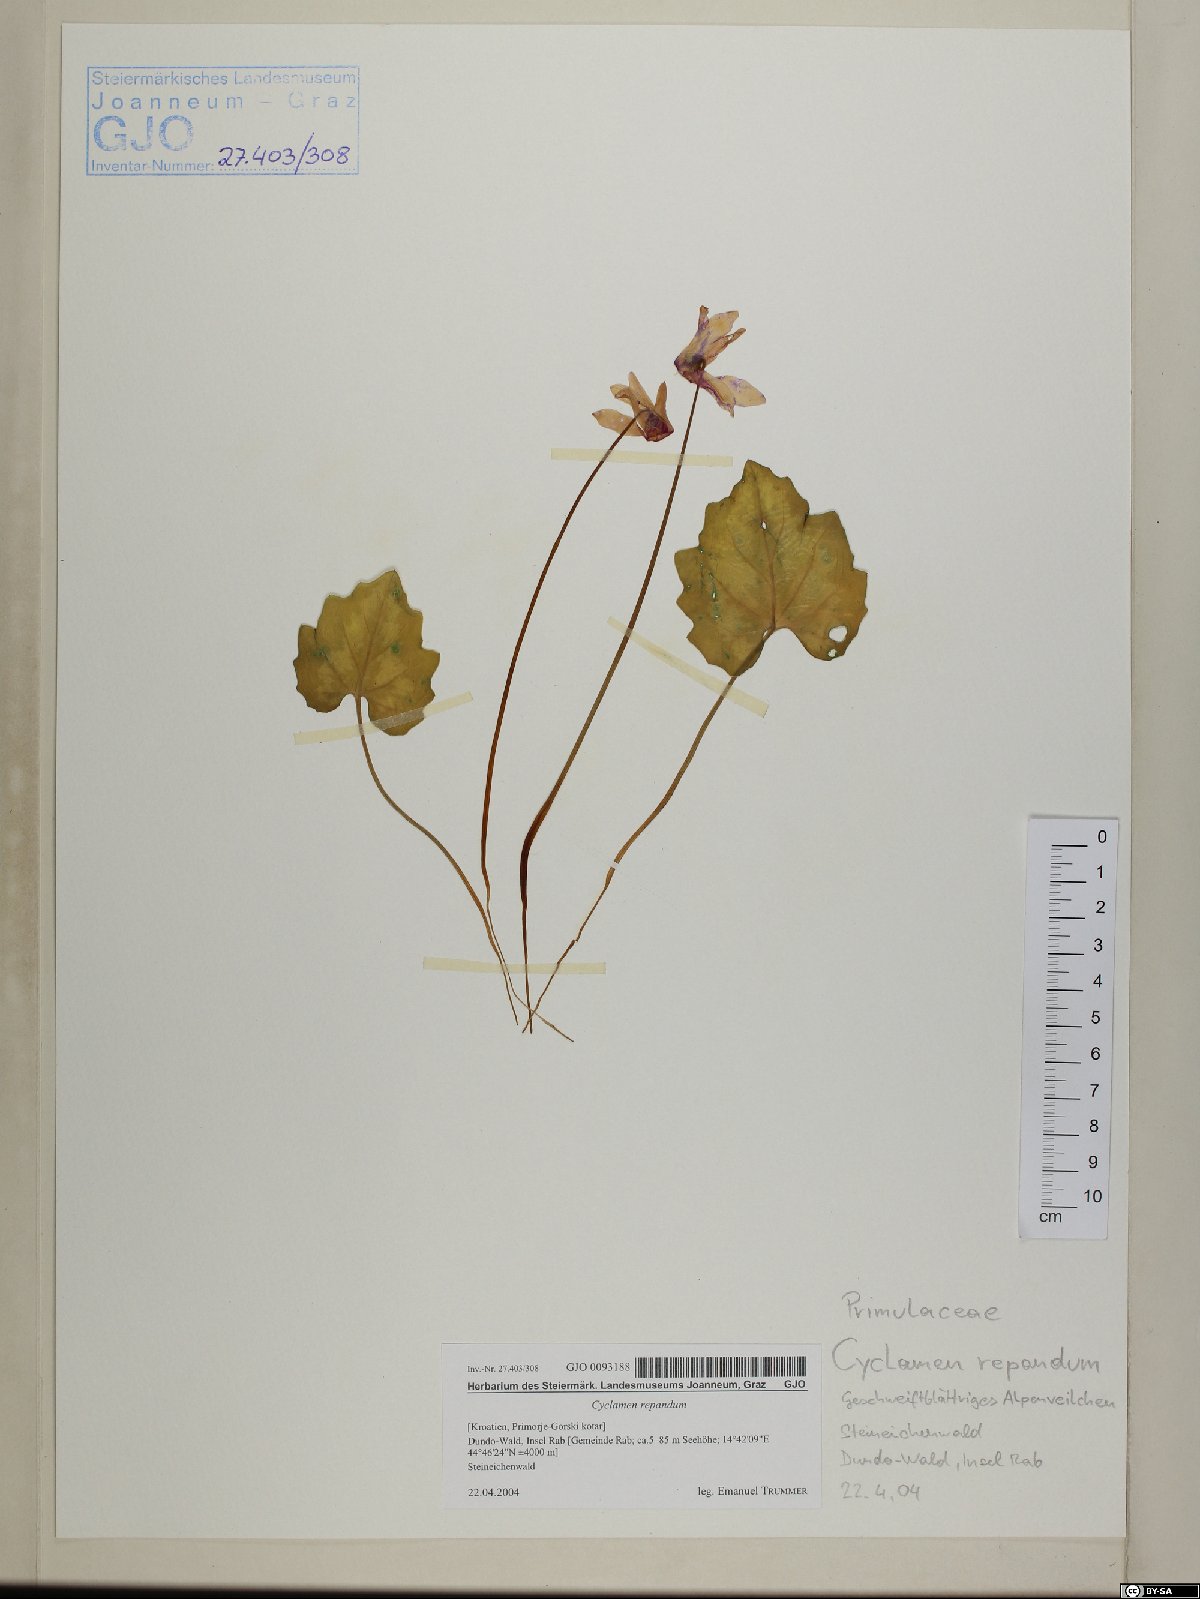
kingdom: Plantae
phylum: Tracheophyta
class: Magnoliopsida
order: Ericales
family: Primulaceae
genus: Cyclamen
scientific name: Cyclamen repandum
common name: Spring sowbread
